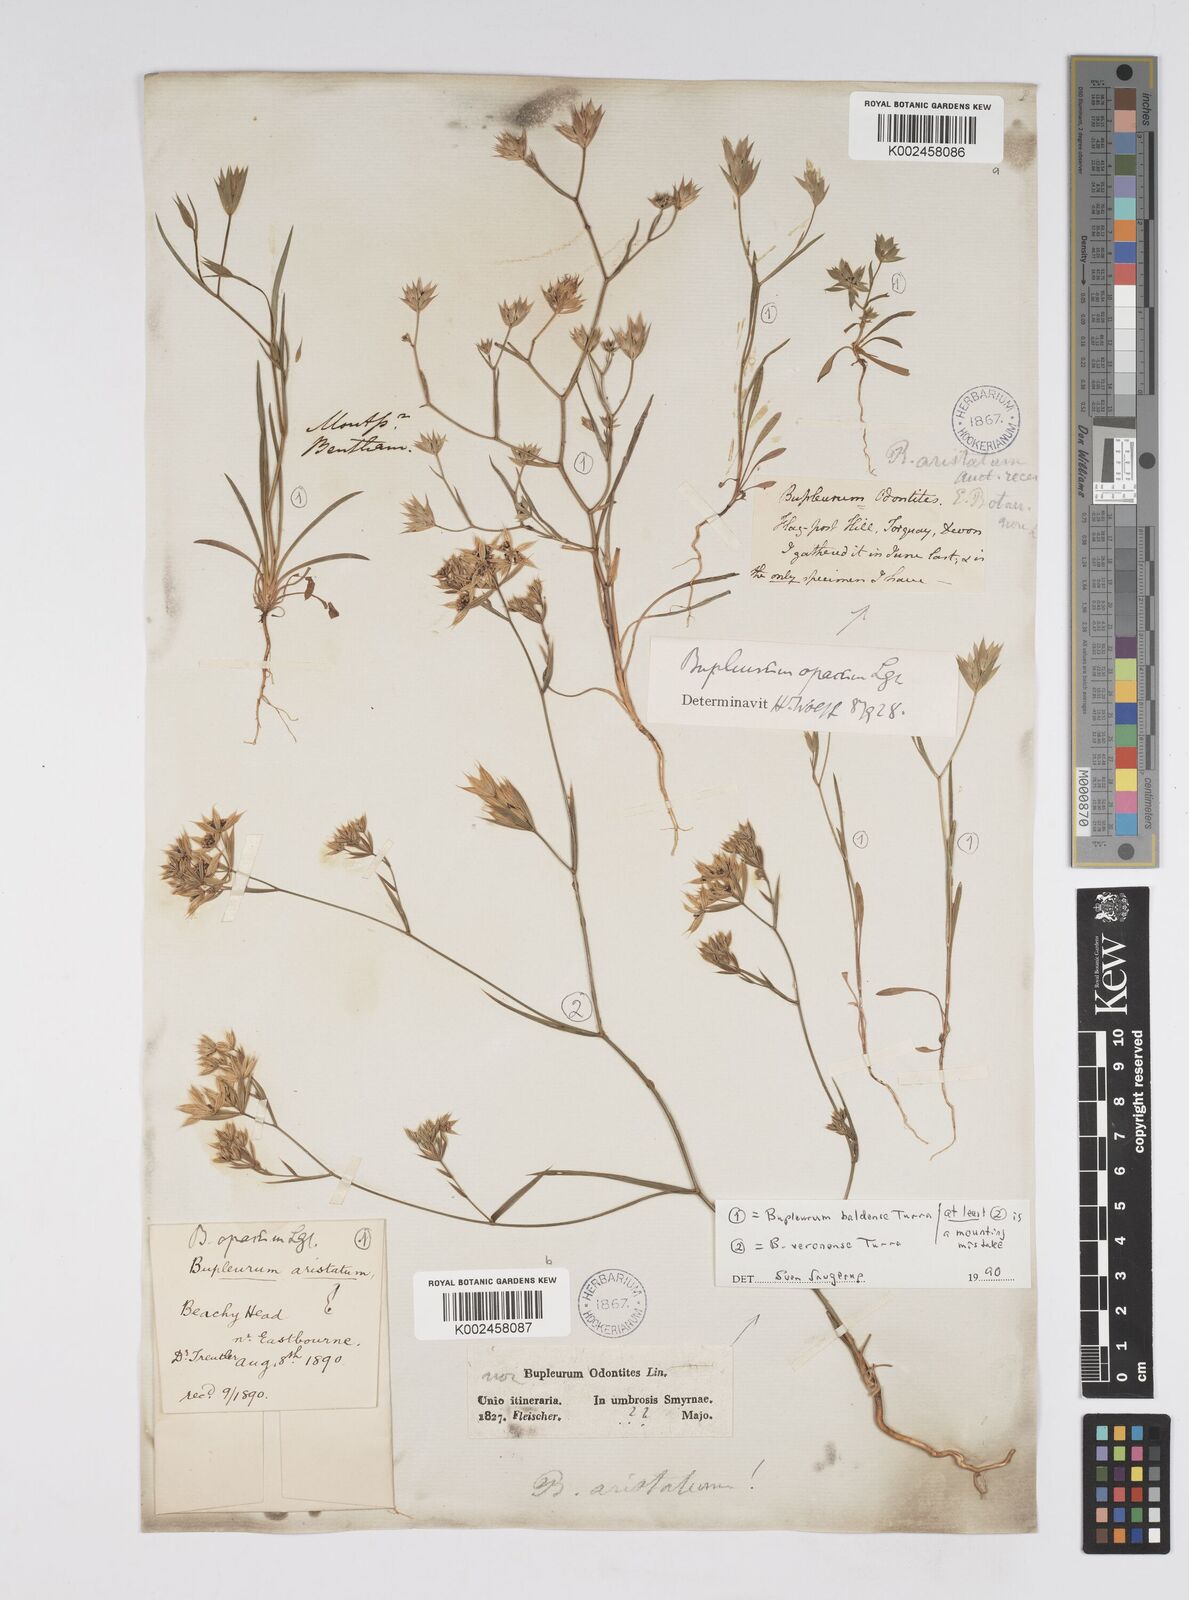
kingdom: Plantae
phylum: Tracheophyta
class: Magnoliopsida
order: Apiales
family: Apiaceae
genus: Bupleurum
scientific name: Bupleurum baldense
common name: Small hare's-ear
